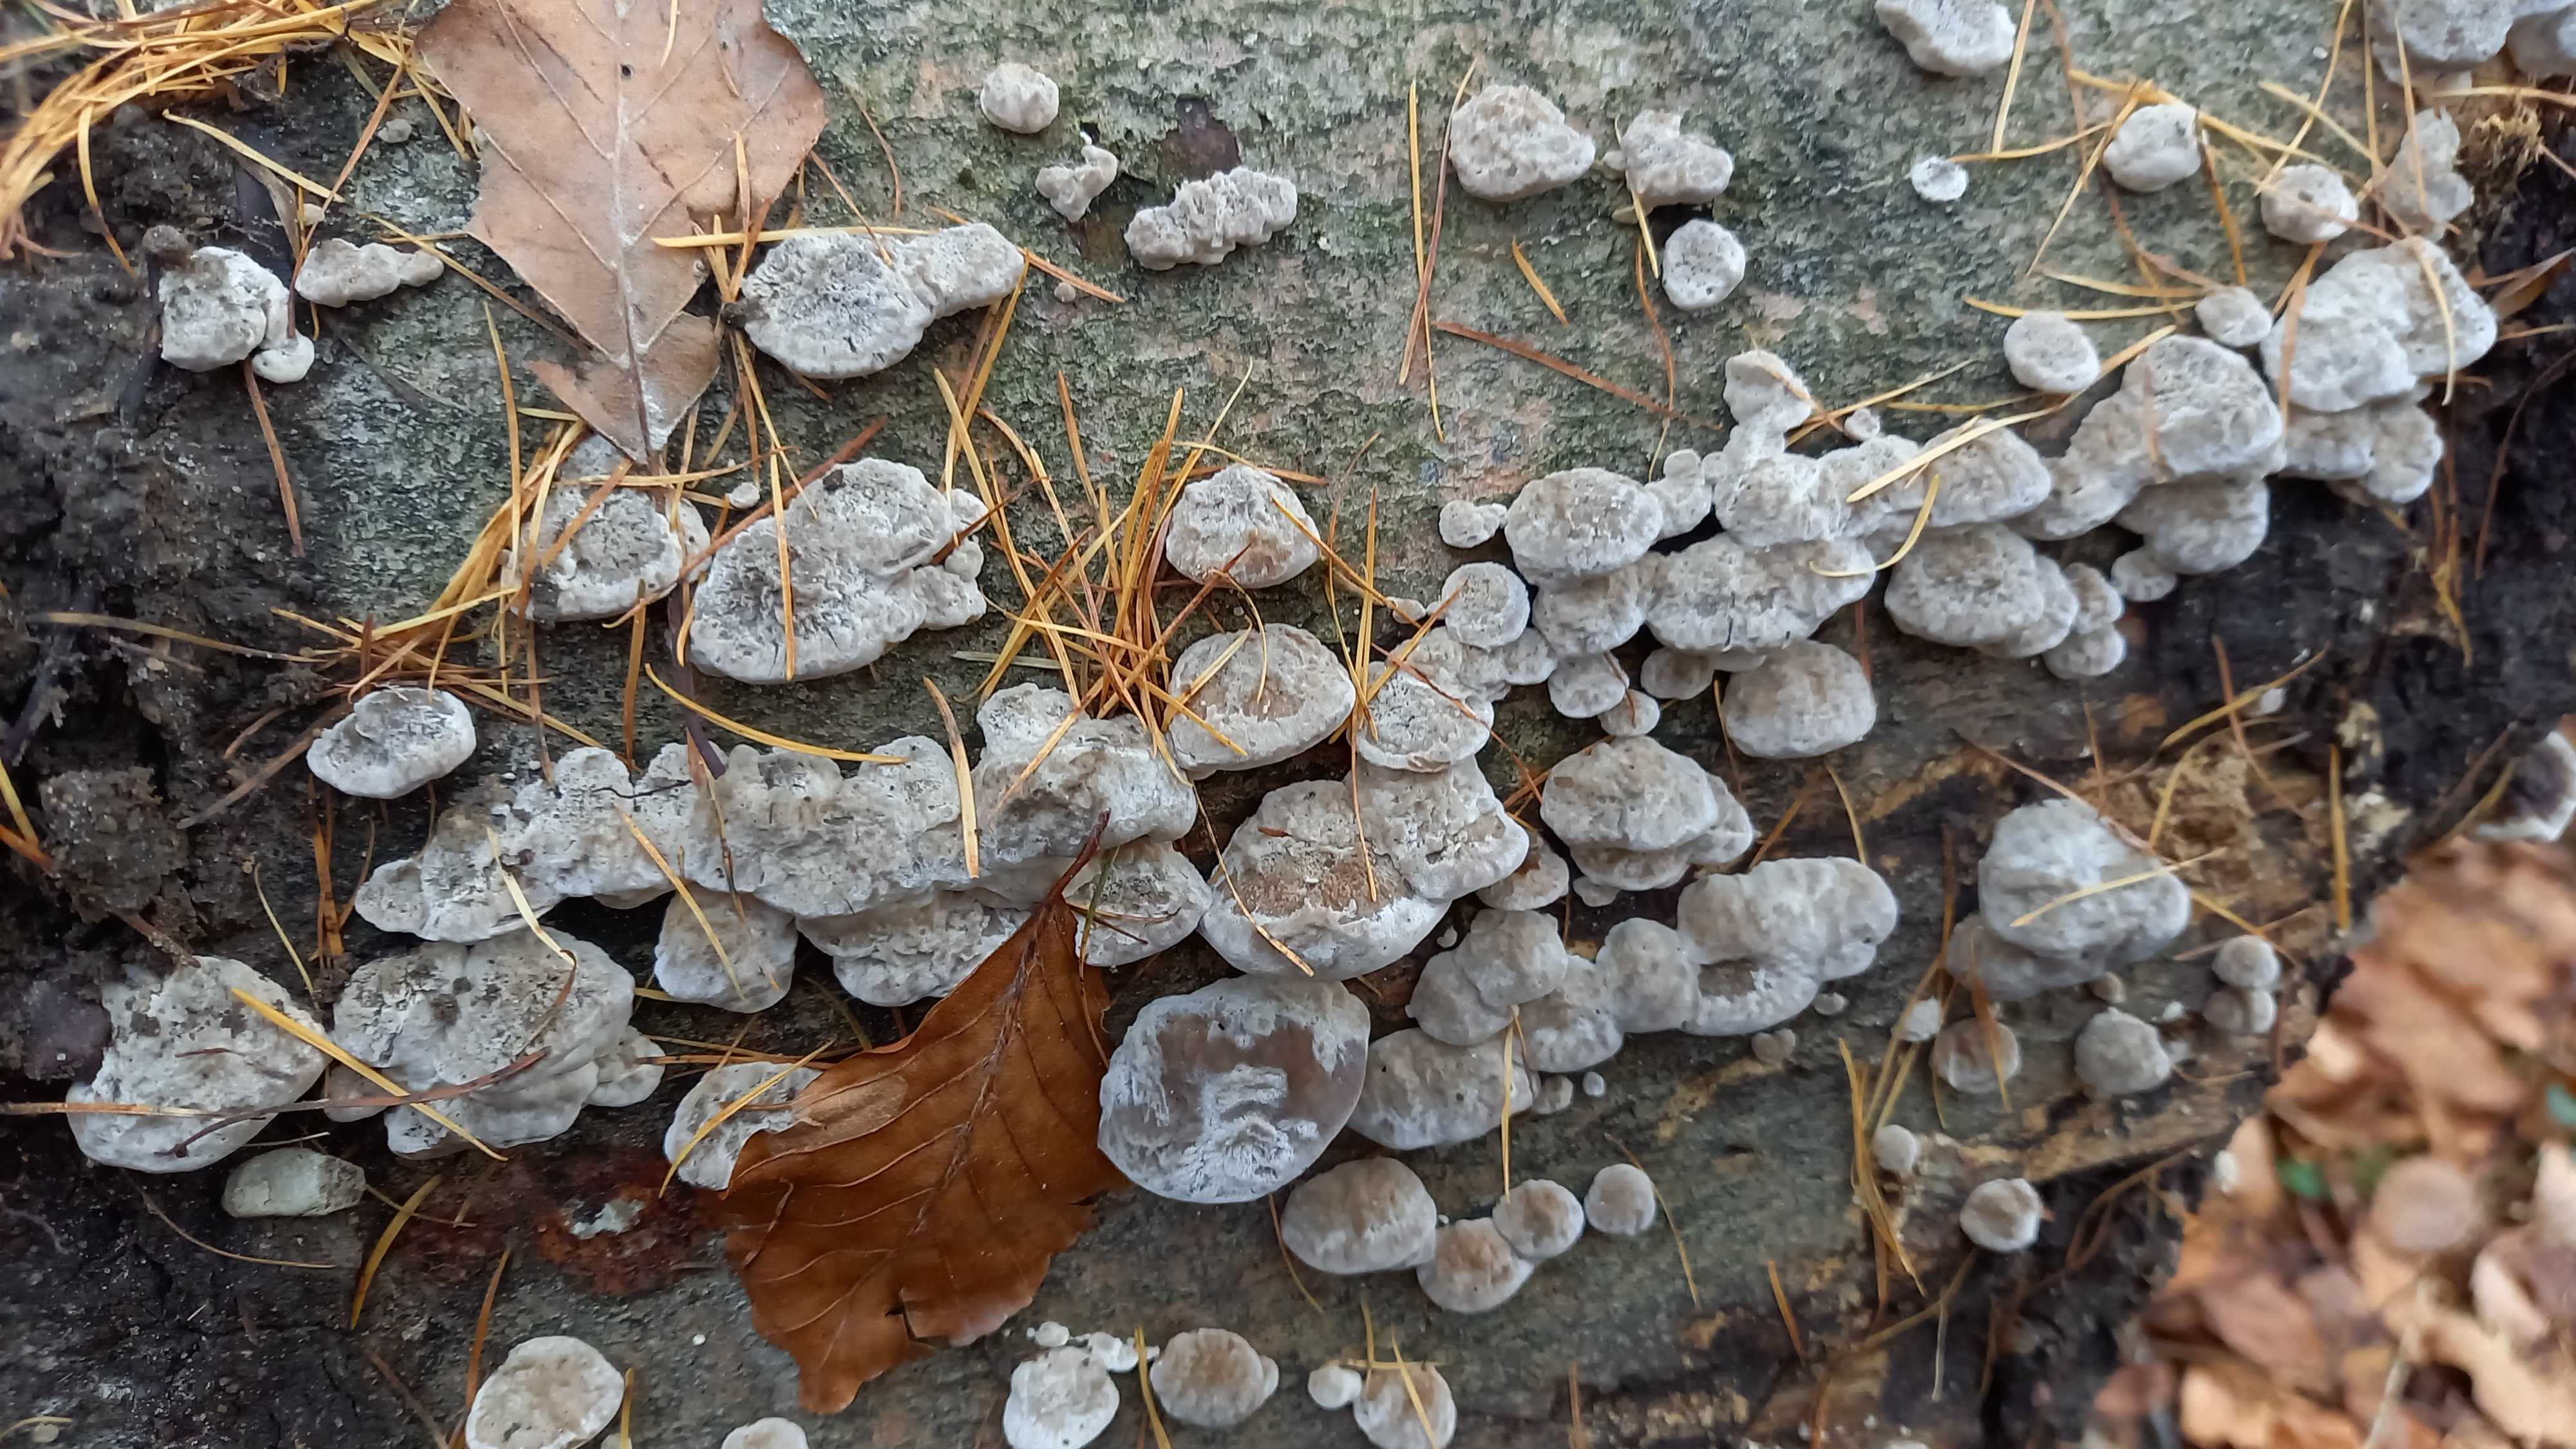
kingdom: Fungi
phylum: Basidiomycota
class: Agaricomycetes
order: Polyporales
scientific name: Polyporales
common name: poresvampordenen
